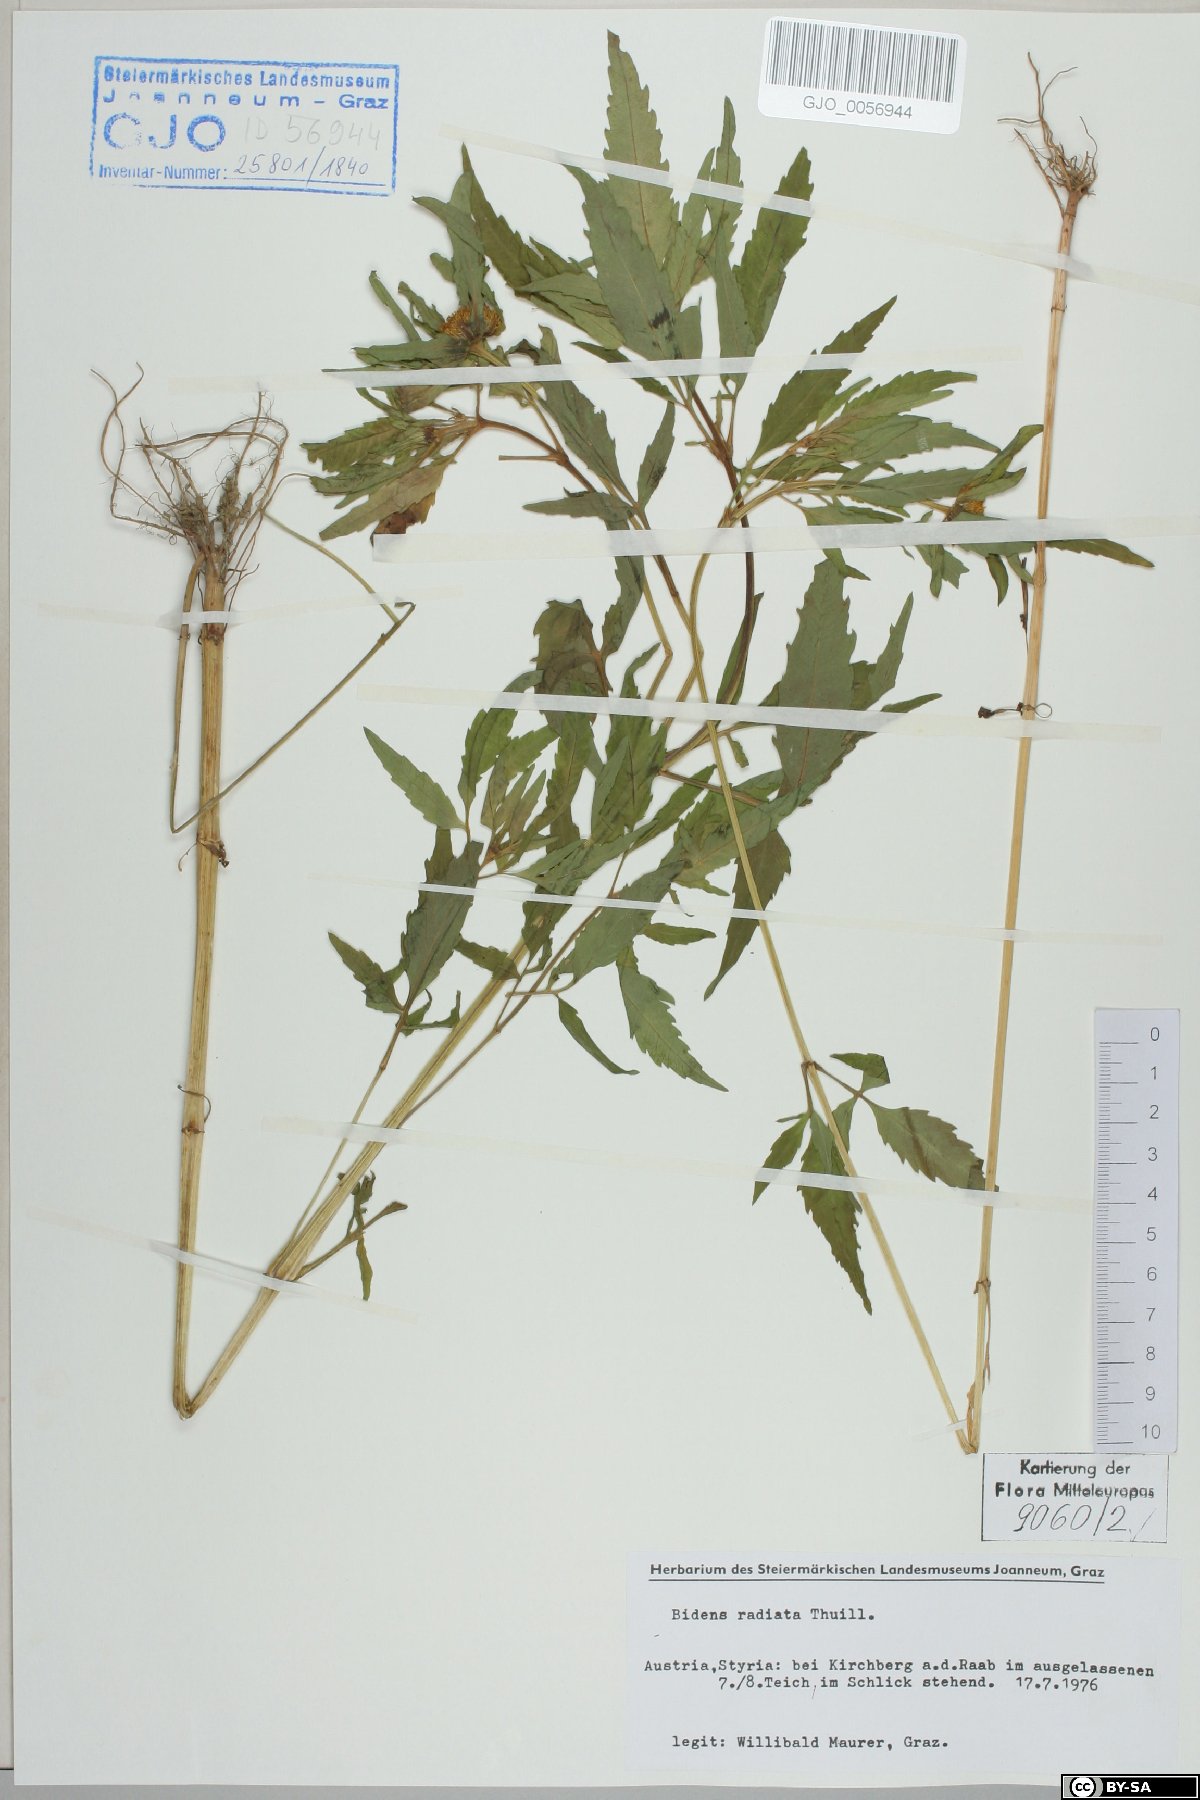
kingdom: Plantae
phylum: Tracheophyta
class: Magnoliopsida
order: Asterales
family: Asteraceae
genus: Bidens
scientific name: Bidens radiata
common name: Radiating bur-marigold
